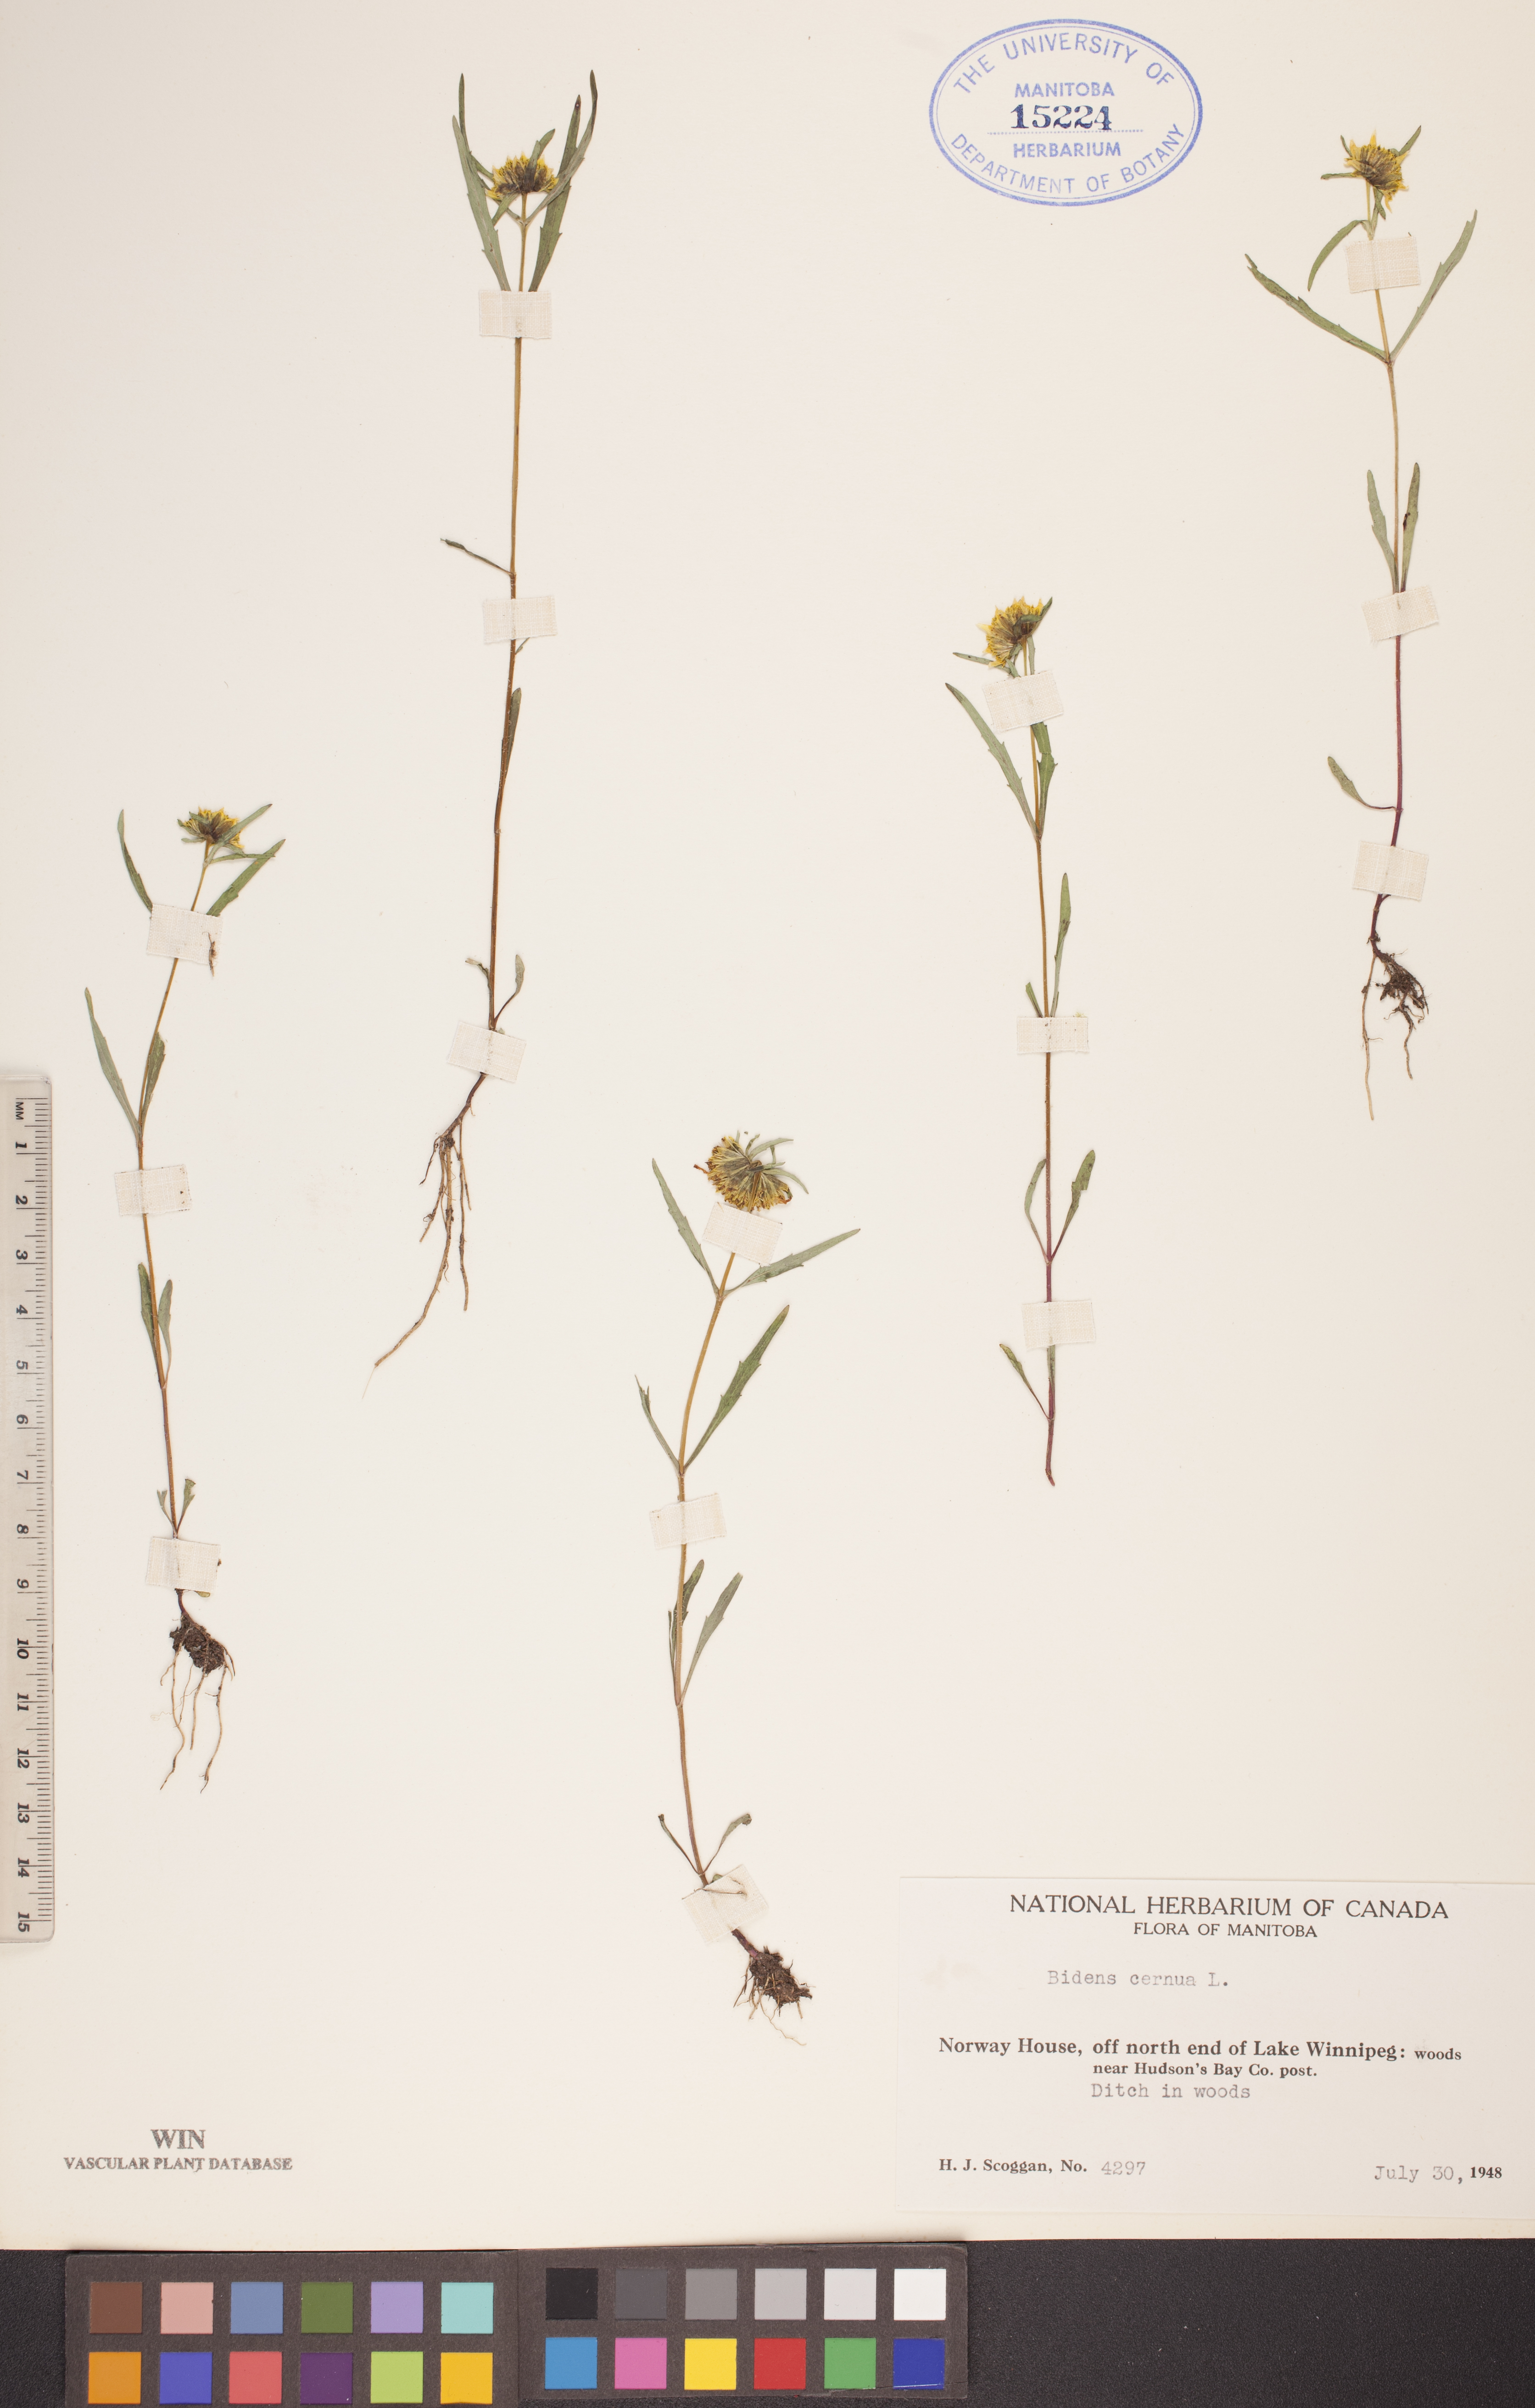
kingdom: Plantae
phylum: Tracheophyta
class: Magnoliopsida
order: Asterales
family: Asteraceae
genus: Bidens
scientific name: Bidens cernua
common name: Nodding bur-marigold
